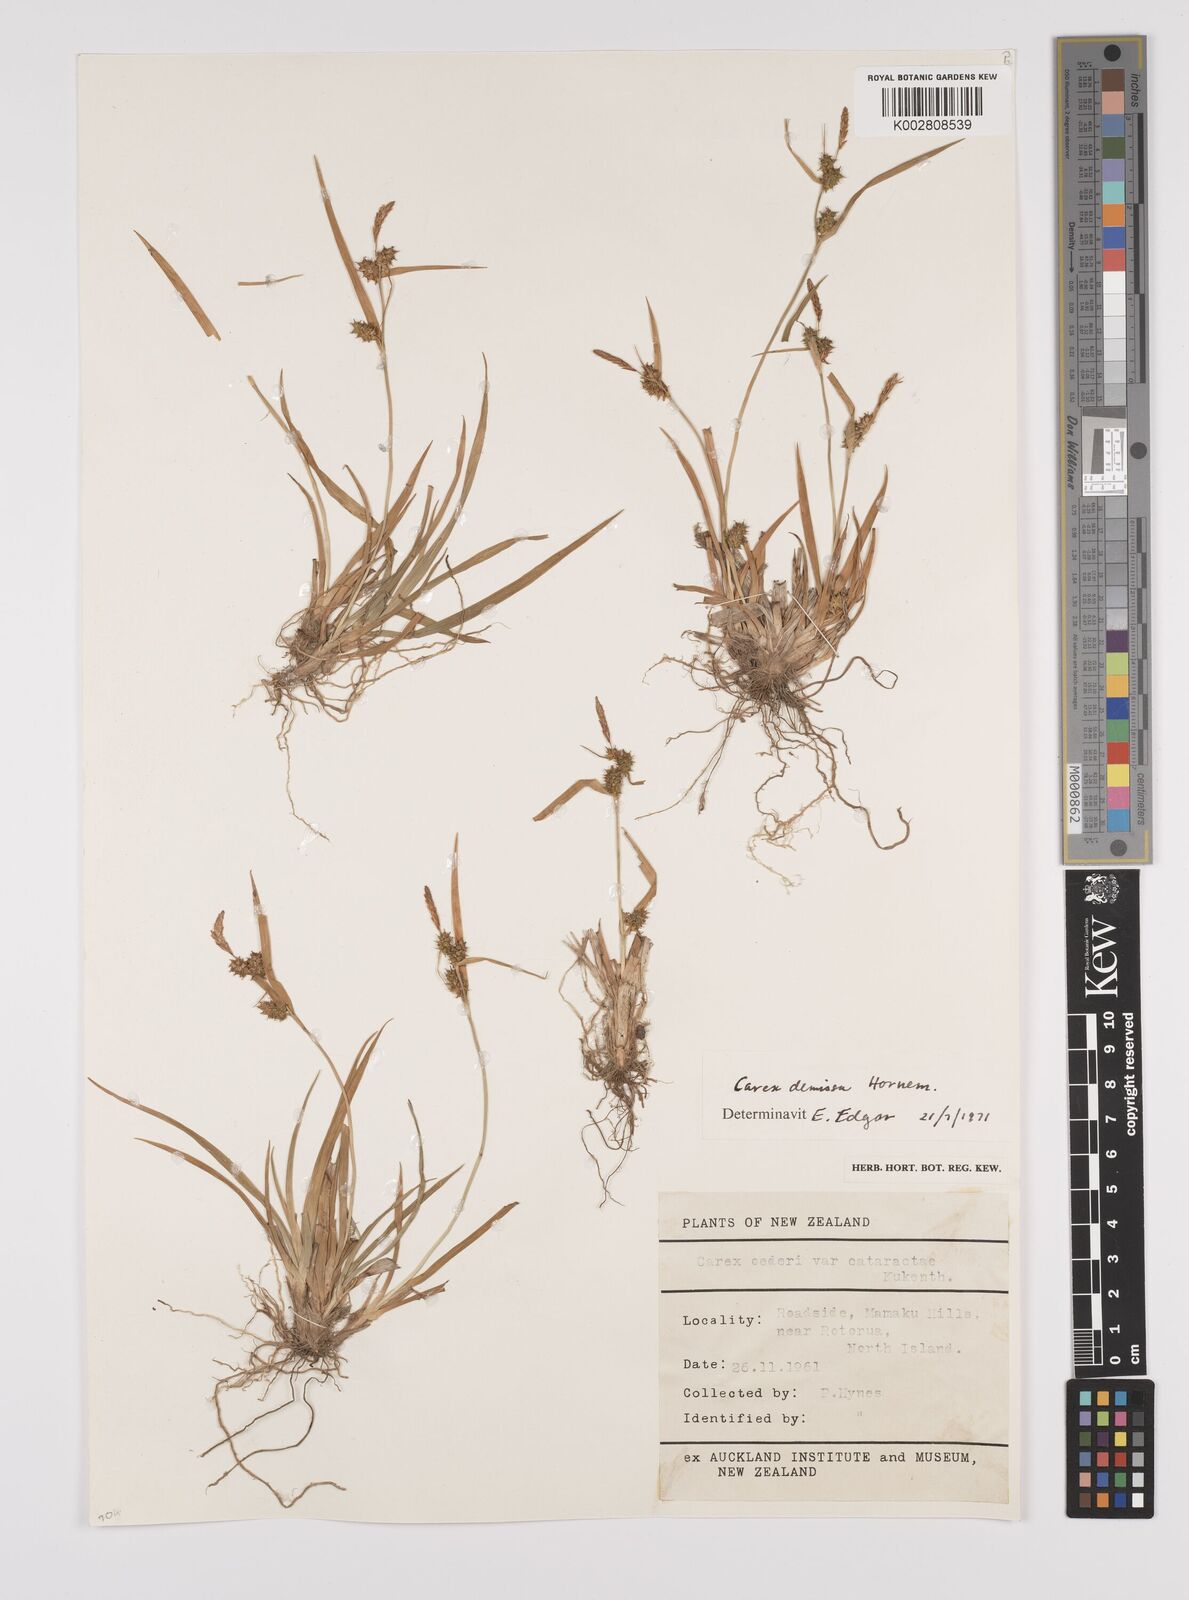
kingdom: Plantae
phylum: Tracheophyta
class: Liliopsida
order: Poales
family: Cyperaceae
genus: Carex
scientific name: Carex demissa
